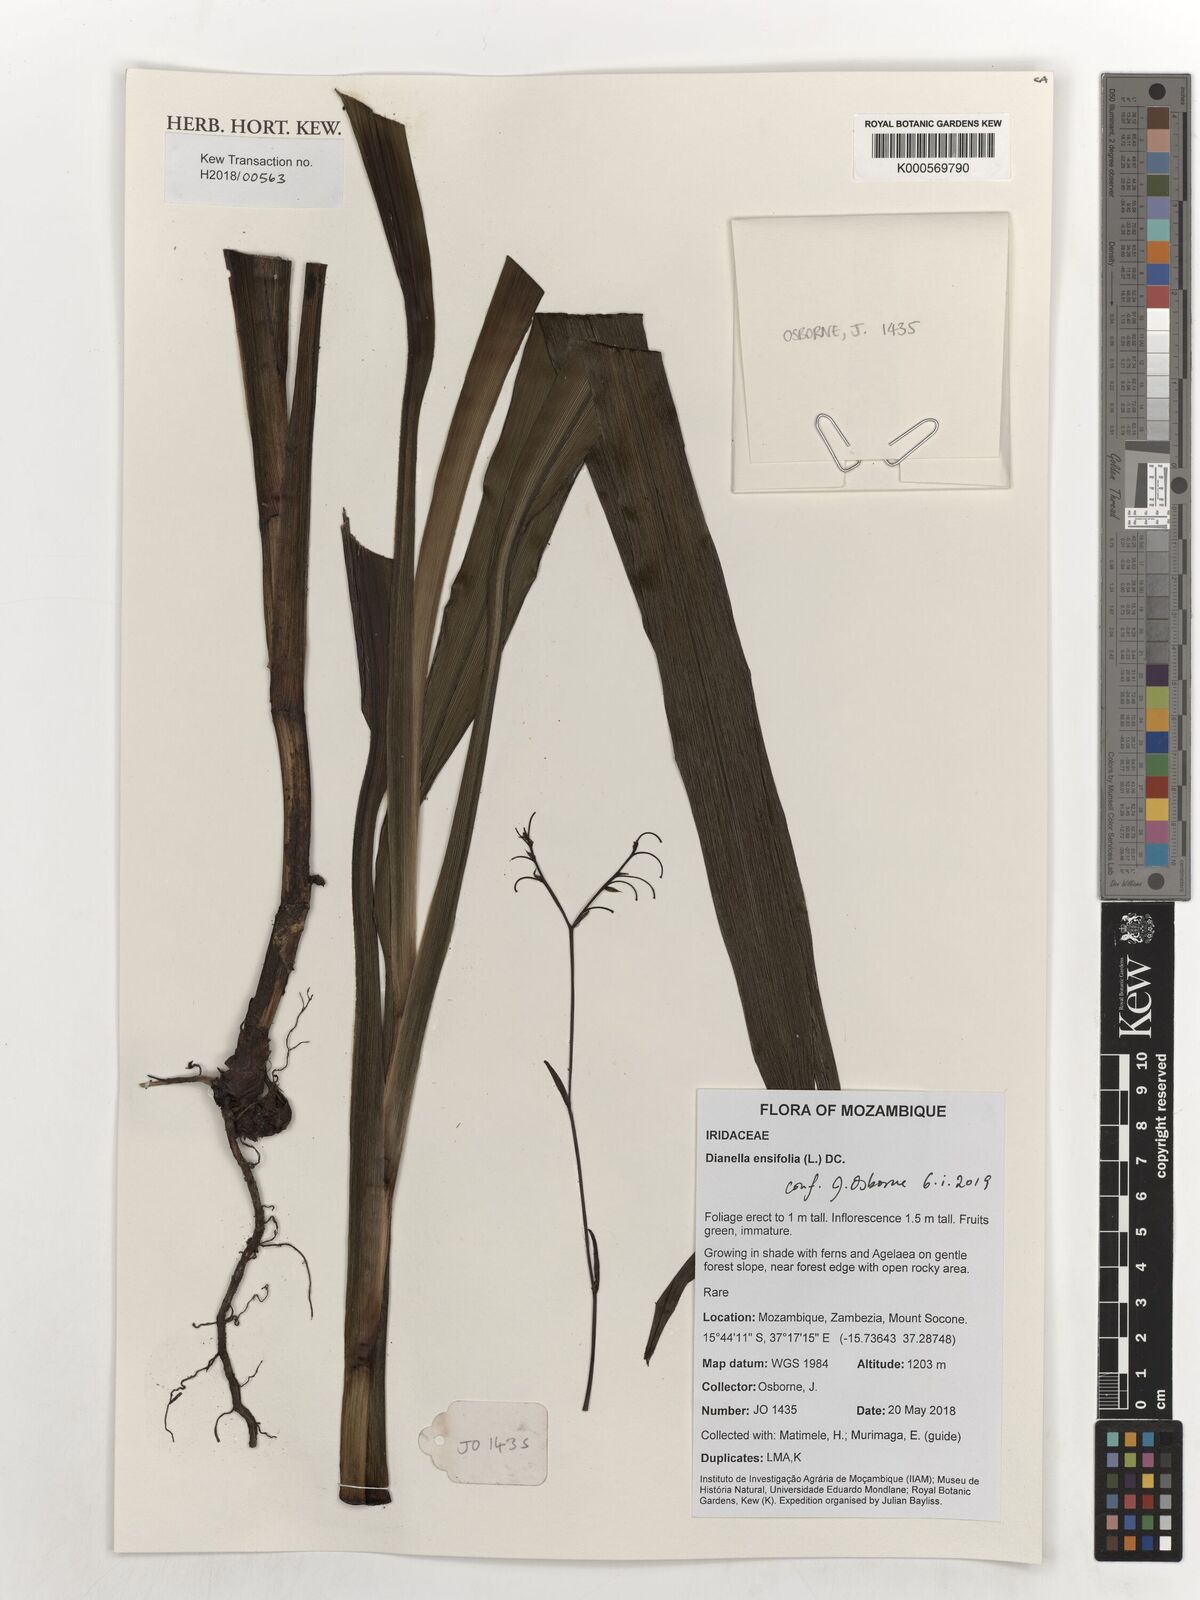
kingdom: Plantae
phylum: Tracheophyta
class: Liliopsida
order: Asparagales
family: Asphodelaceae
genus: Dianella
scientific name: Dianella ensifolia
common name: New zealand lilyplant
